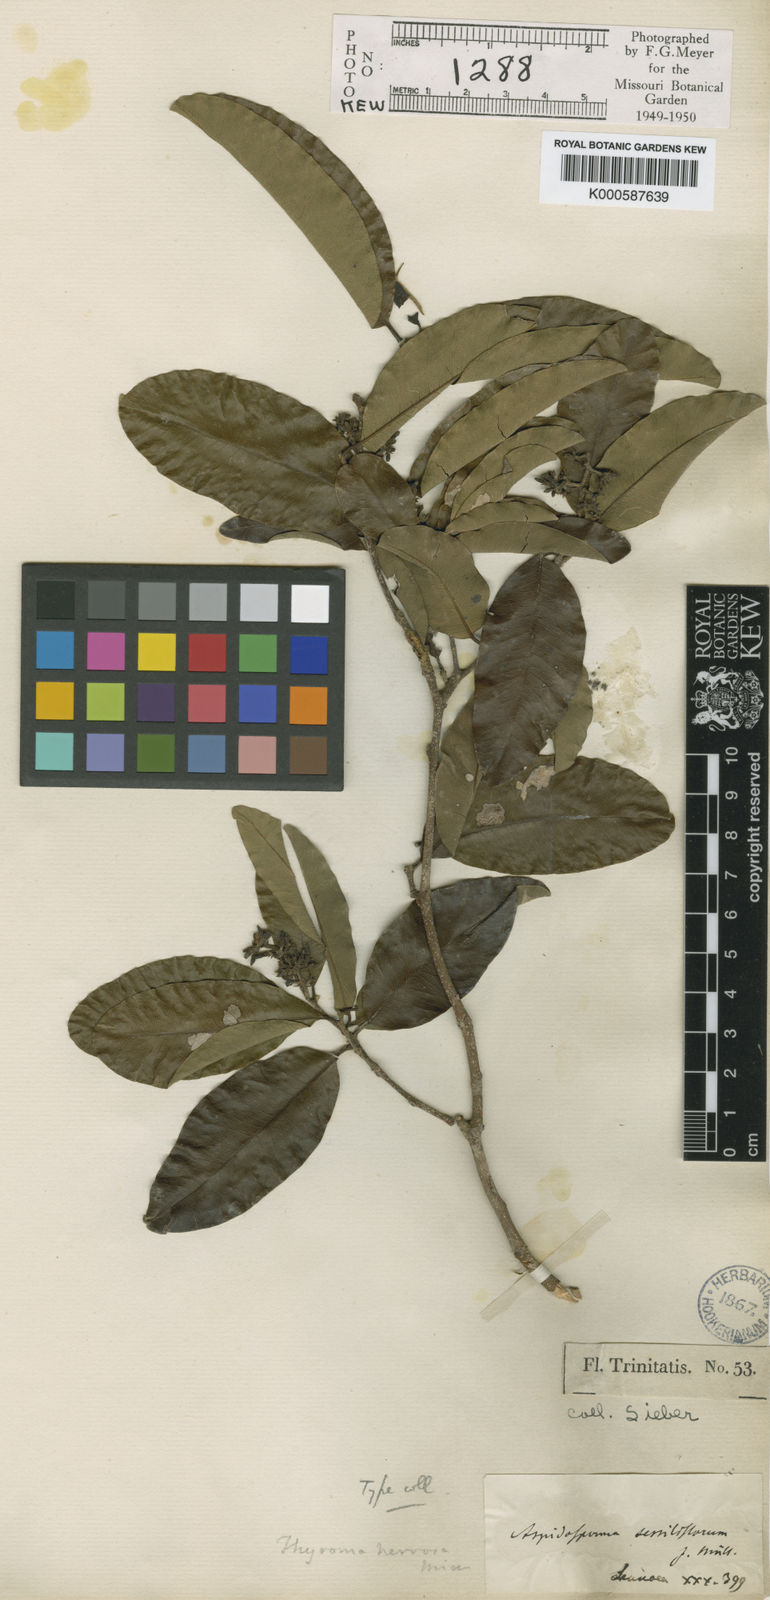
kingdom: Plantae
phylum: Tracheophyta
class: Magnoliopsida
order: Gentianales
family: Apocynaceae
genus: Aspidosperma
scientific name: Aspidosperma cuspa
